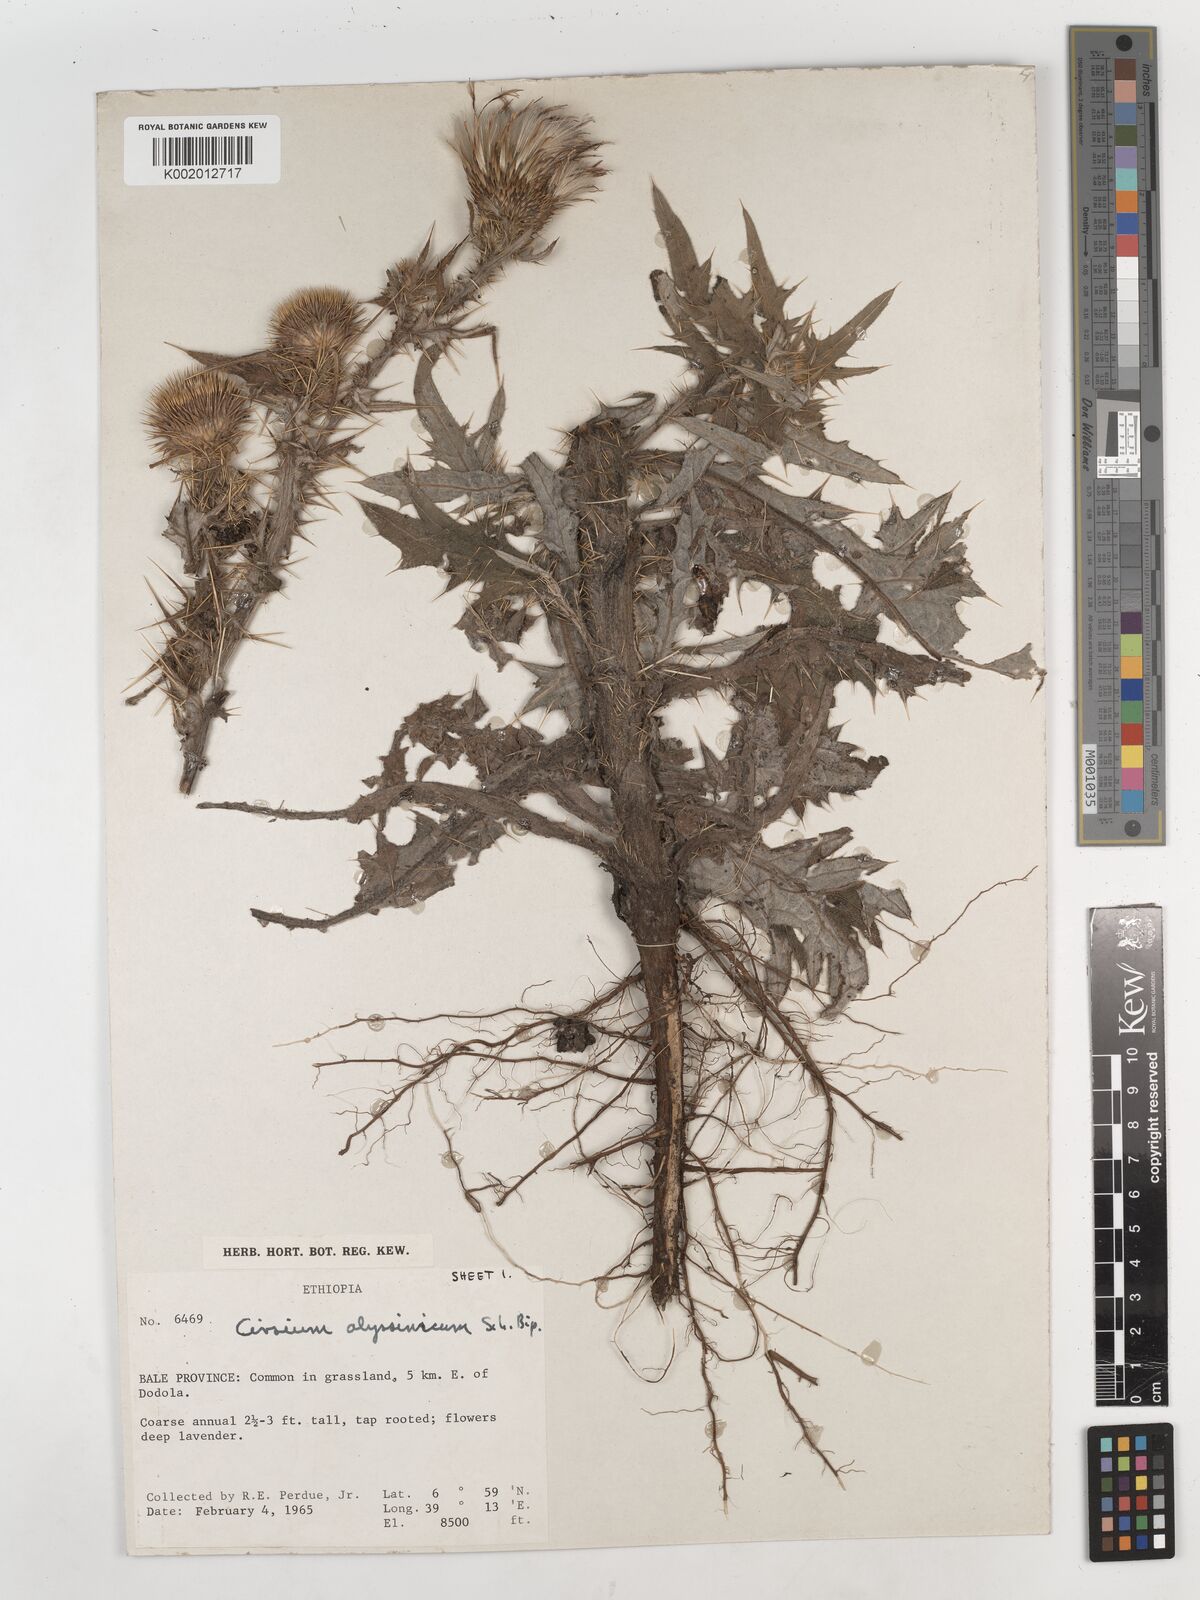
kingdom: Plantae
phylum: Tracheophyta
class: Magnoliopsida
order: Asterales
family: Asteraceae
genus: Cirsium
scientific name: Cirsium vulgare
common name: Bull thistle
